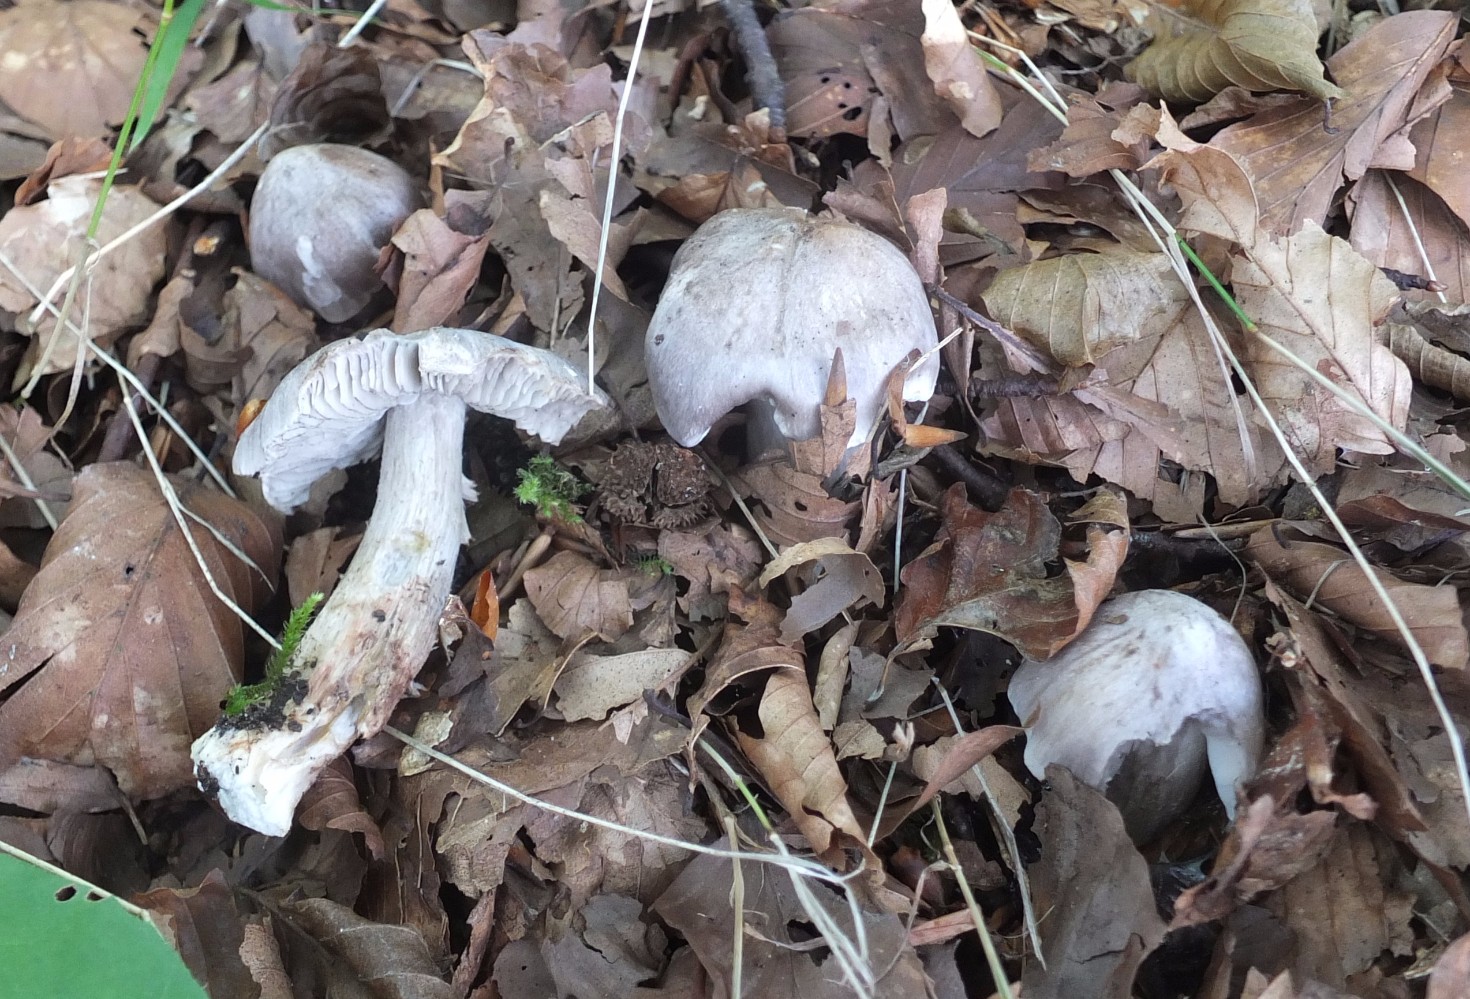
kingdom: Fungi
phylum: Basidiomycota
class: Agaricomycetes
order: Agaricales
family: Tricholomataceae
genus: Tricholoma
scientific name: Tricholoma sciodes
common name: stribet ridderhat
